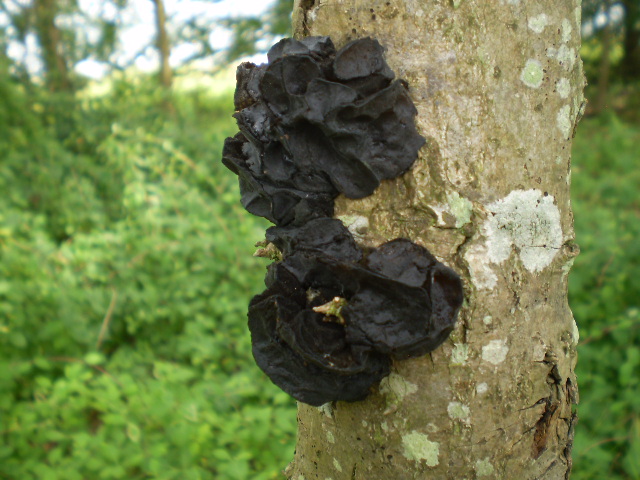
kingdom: Fungi
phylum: Basidiomycota
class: Agaricomycetes
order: Auriculariales
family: Auriculariaceae
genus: Exidia
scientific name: Exidia glandulosa
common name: ege-bævretop
